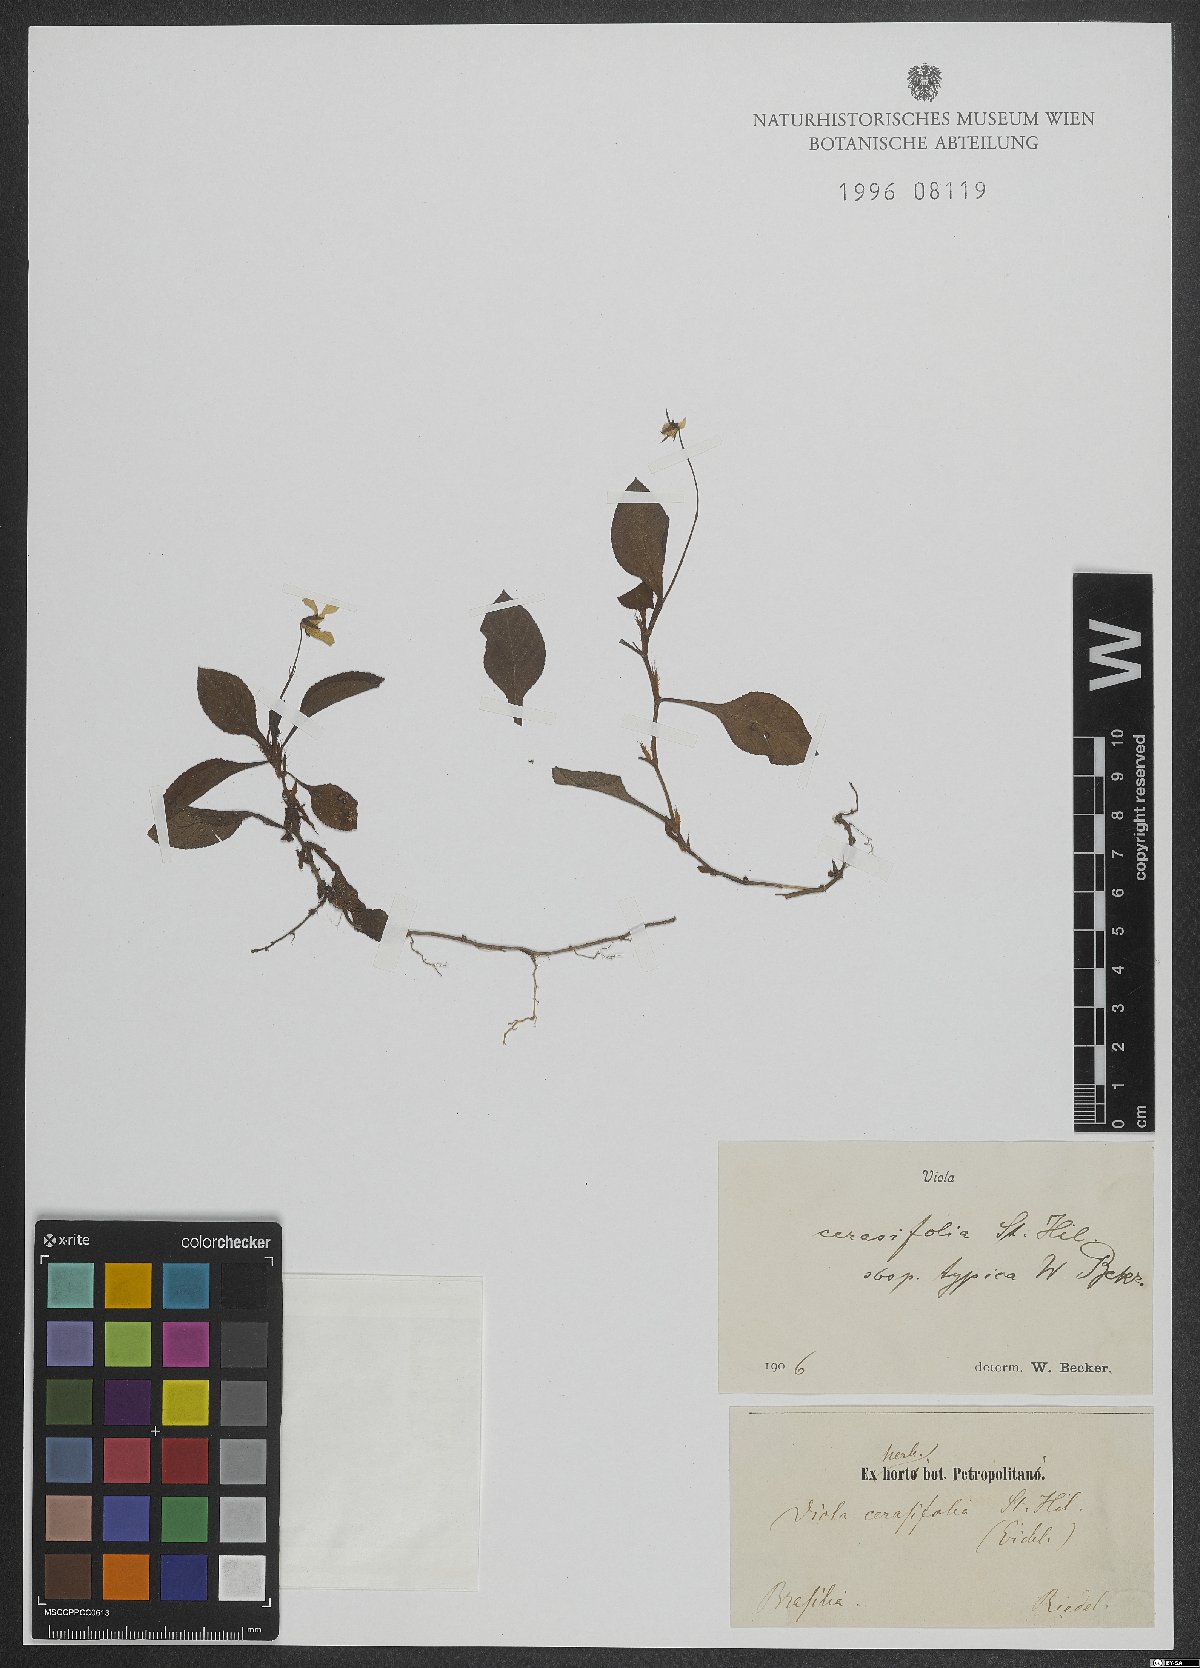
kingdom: Plantae
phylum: Tracheophyta
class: Magnoliopsida
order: Malpighiales
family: Violaceae
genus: Viola
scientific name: Viola cerasifolia
